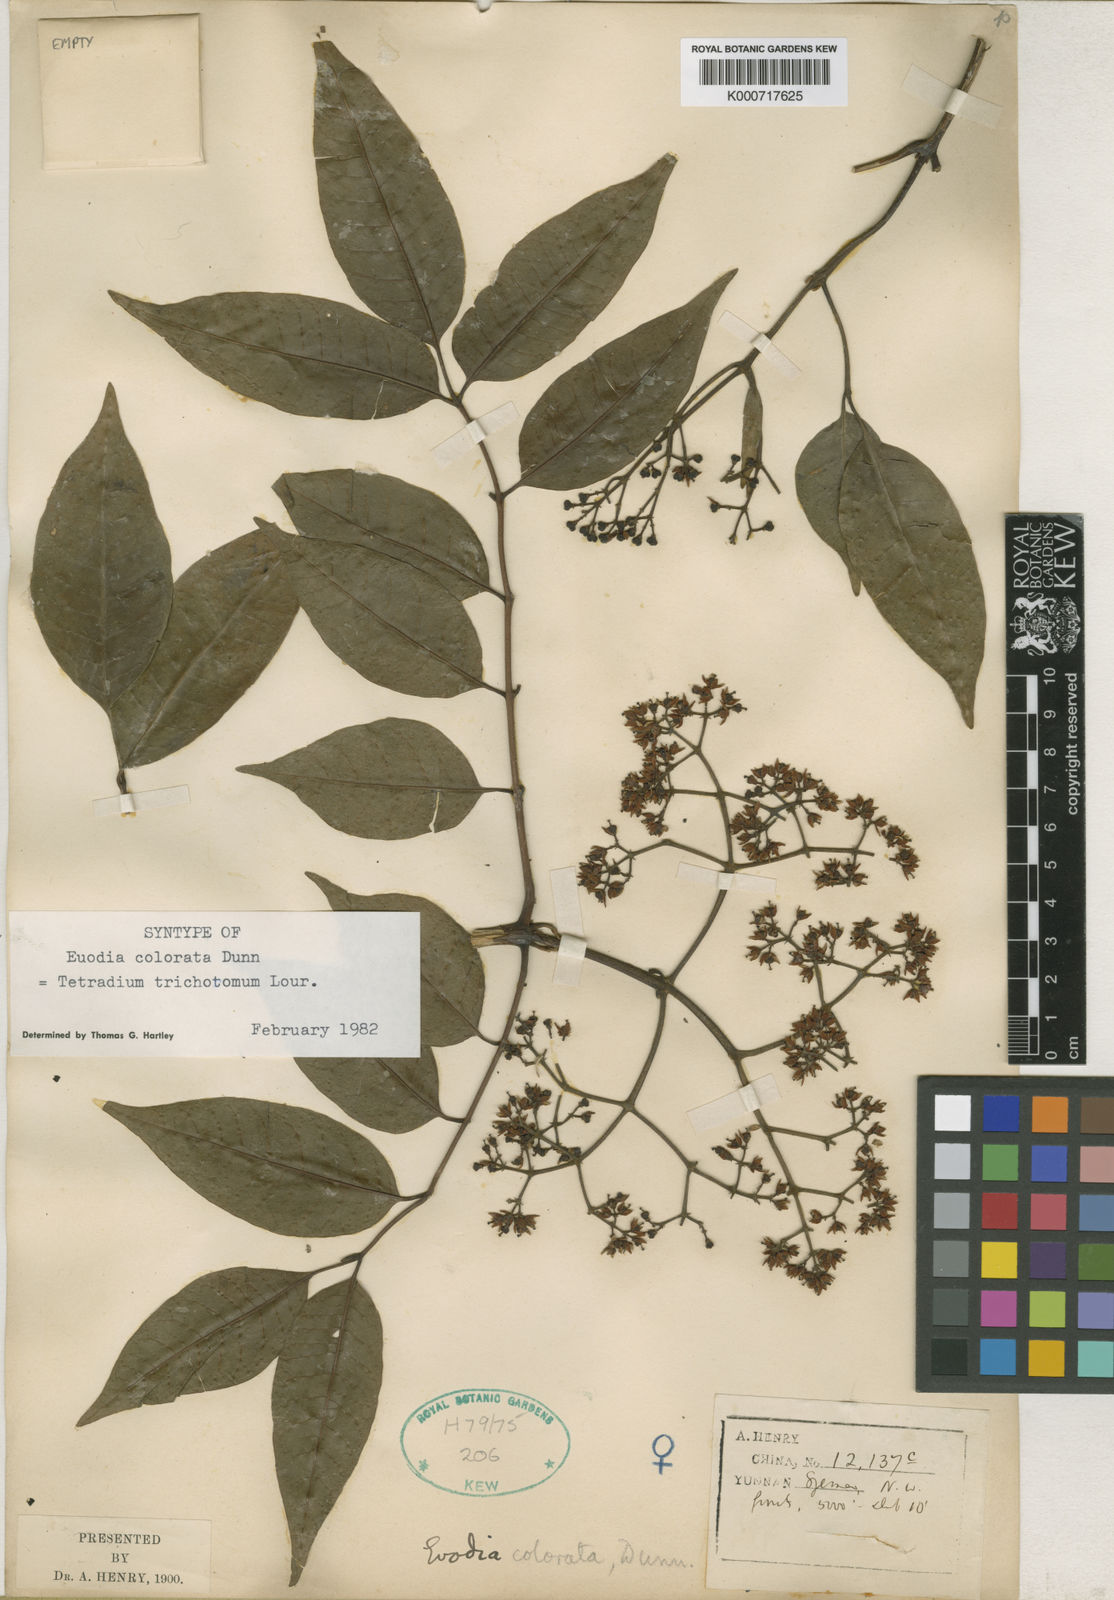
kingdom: Plantae
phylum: Tracheophyta
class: Magnoliopsida
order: Sapindales
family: Rutaceae
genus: Tetradium
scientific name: Tetradium trichotomum
